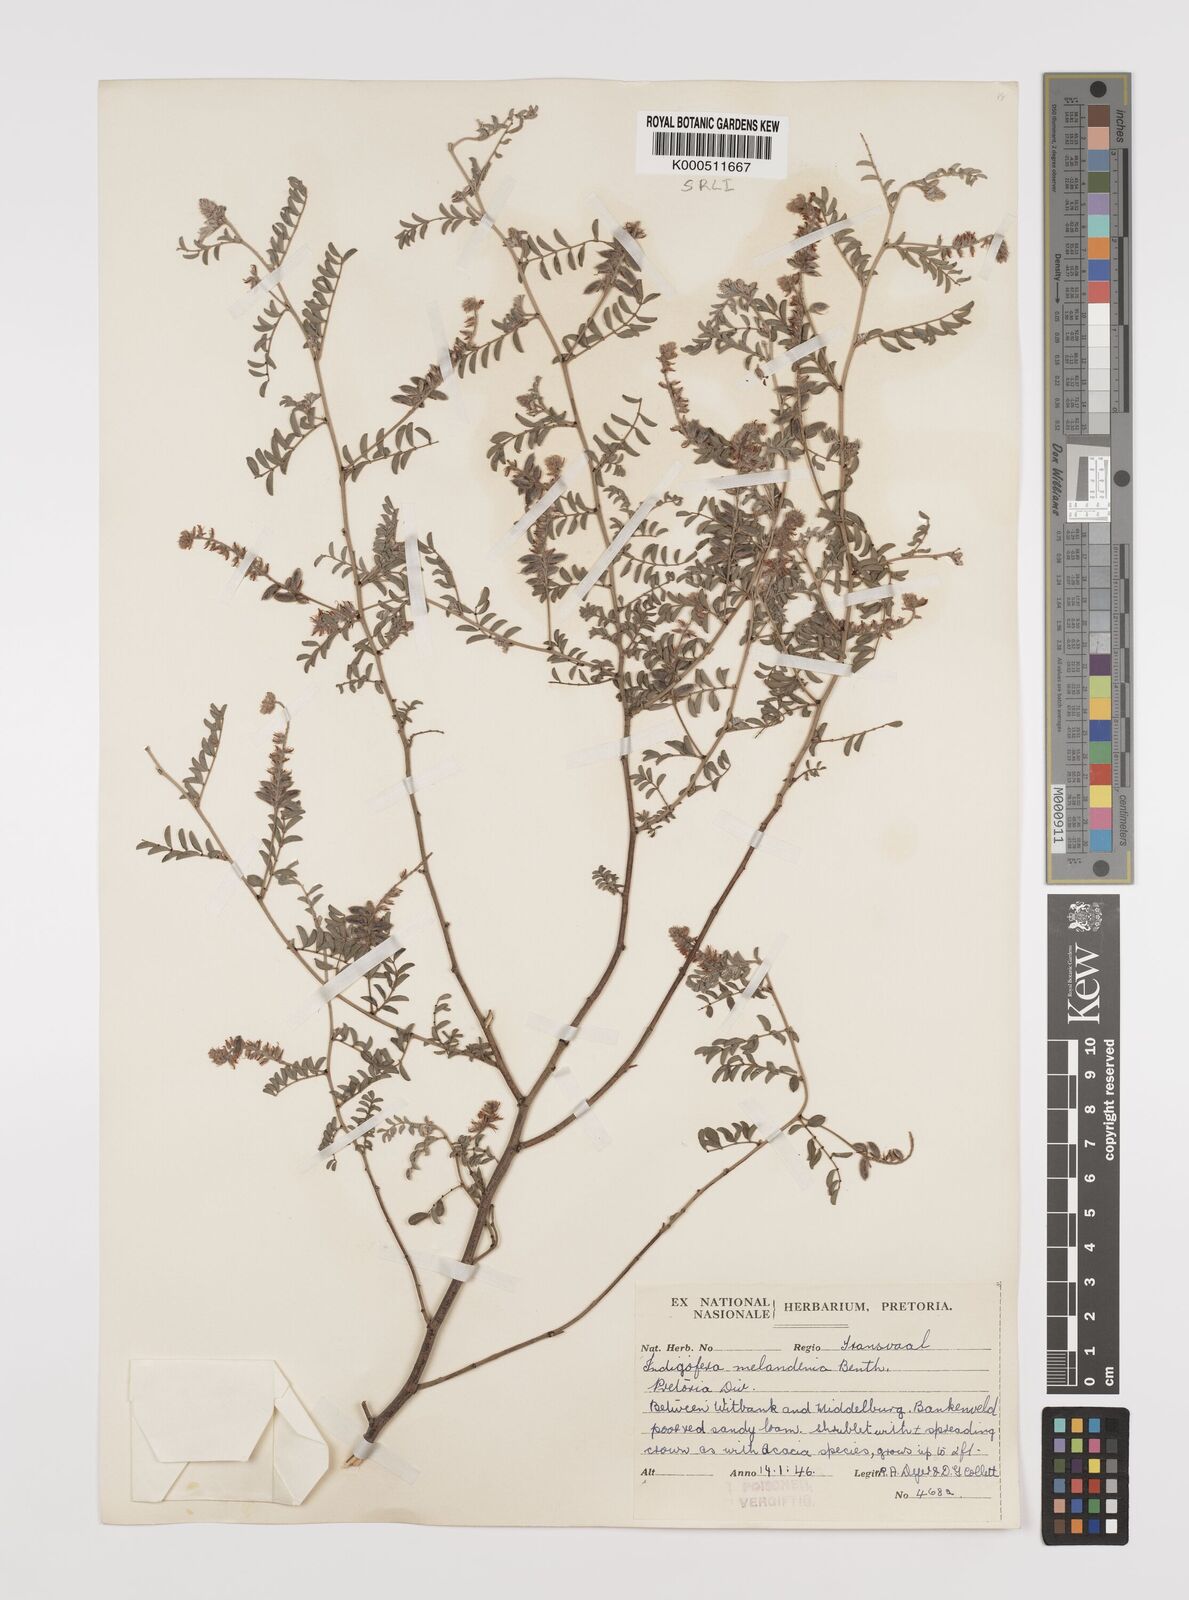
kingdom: Plantae
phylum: Tracheophyta
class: Magnoliopsida
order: Fabales
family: Fabaceae
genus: Indigofera
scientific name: Indigofera melanadenia
